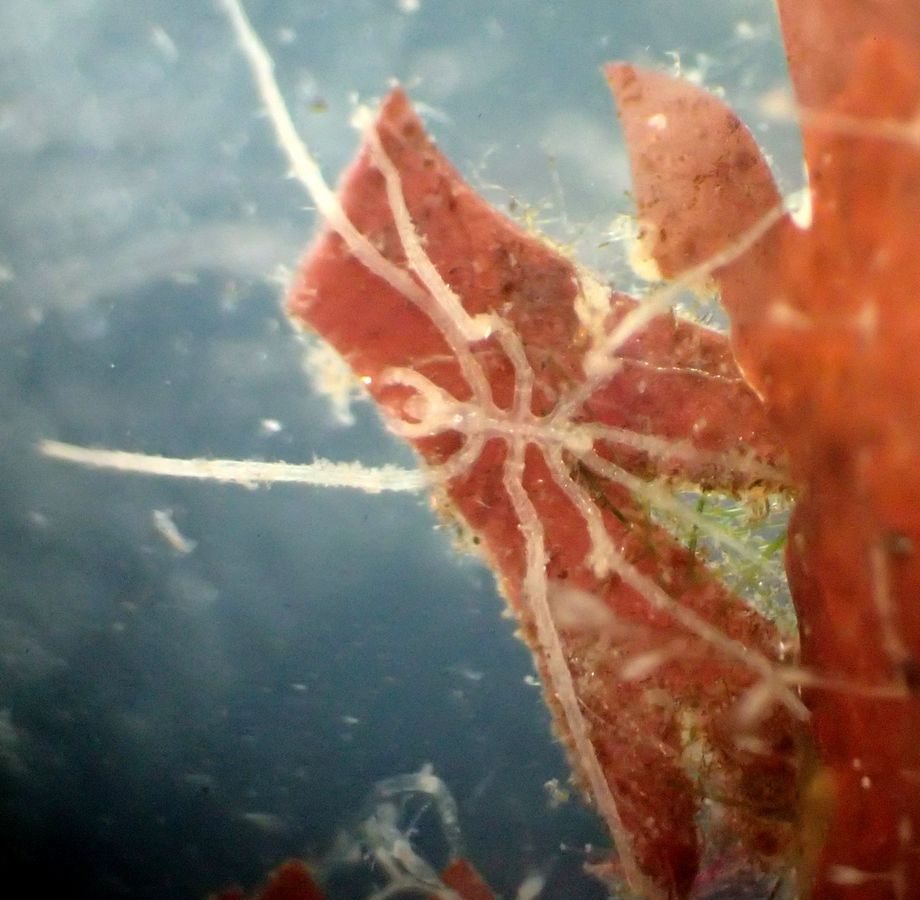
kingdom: Animalia
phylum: Arthropoda
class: Pycnogonida
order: Pantopoda
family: Phoxichilidiidae
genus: Phoxichilidium
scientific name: Phoxichilidium femoratum
